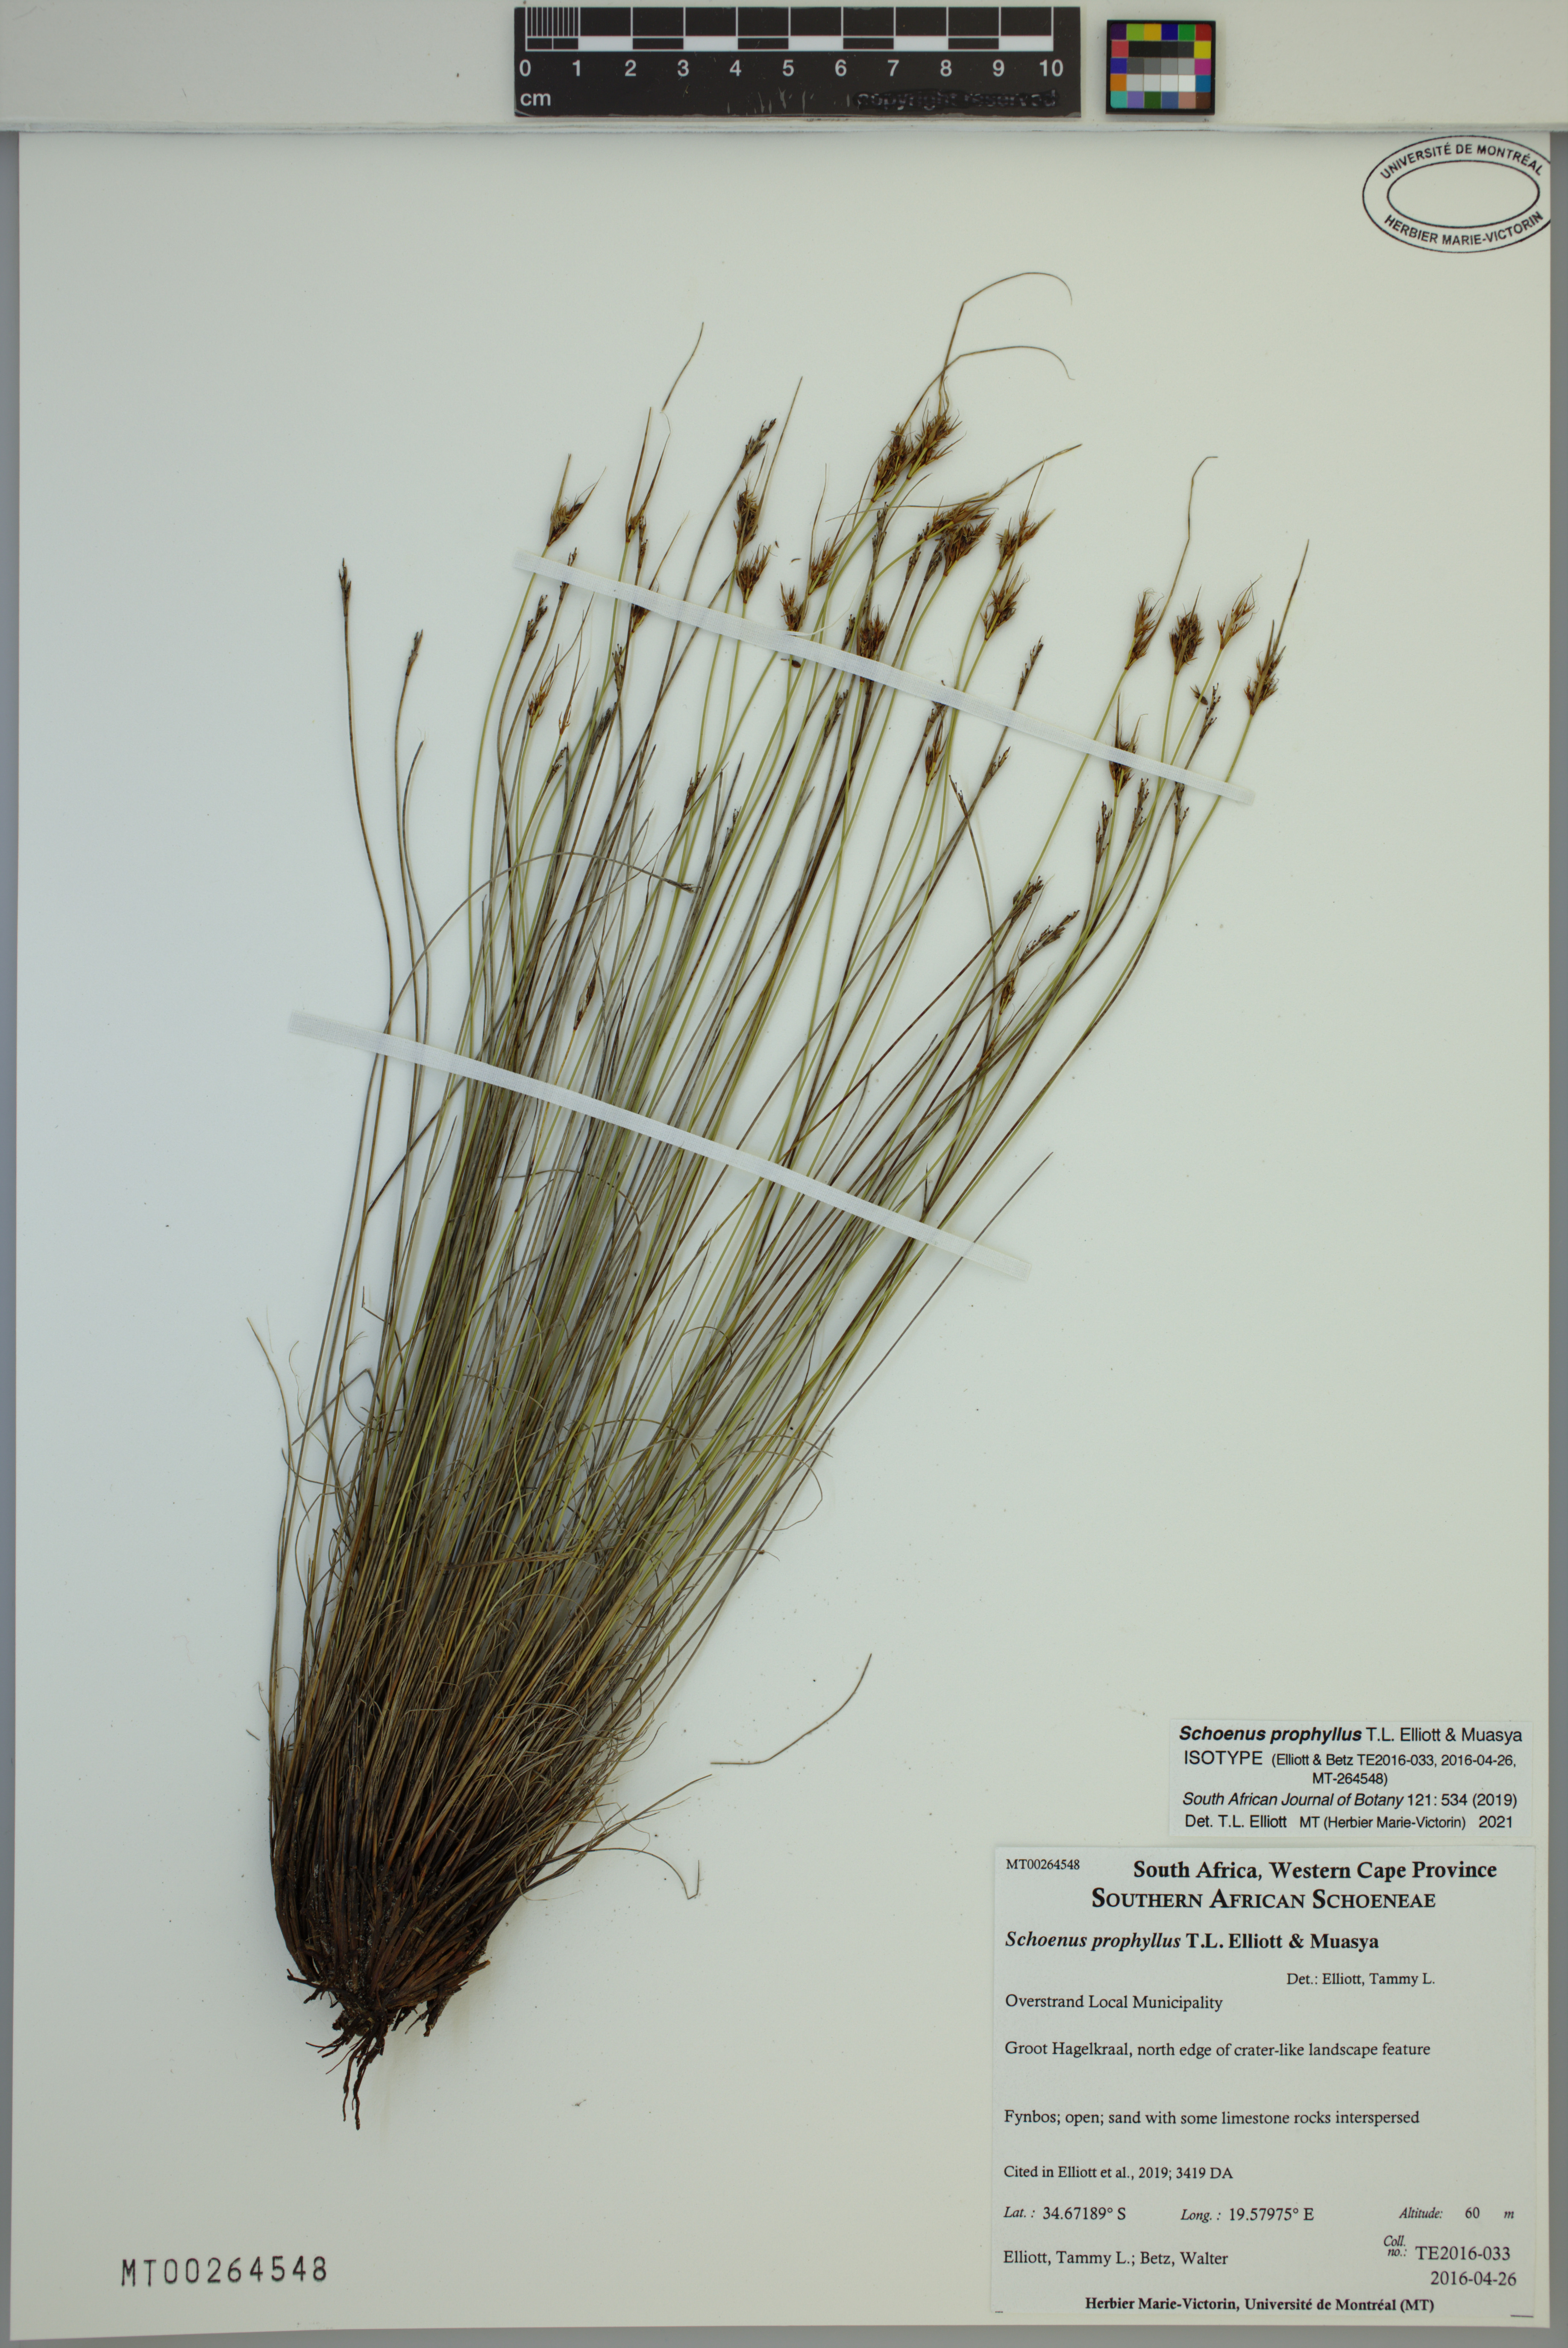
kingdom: Plantae
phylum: Tracheophyta
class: Liliopsida
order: Poales
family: Cyperaceae
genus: Schoenus
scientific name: Schoenus prophyllus
